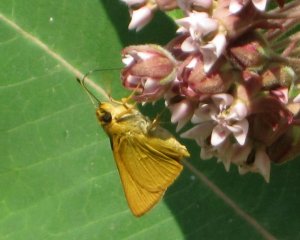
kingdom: Animalia
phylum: Arthropoda
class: Insecta
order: Lepidoptera
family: Hesperiidae
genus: Atrytone
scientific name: Atrytone delaware
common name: Delaware Skipper
